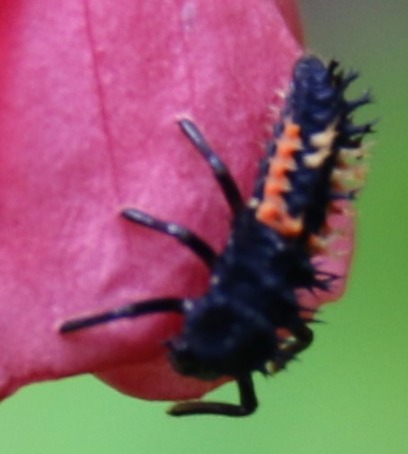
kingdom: Animalia
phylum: Arthropoda
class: Insecta
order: Coleoptera
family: Coccinellidae
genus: Harmonia
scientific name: Harmonia axyridis
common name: Harlekinmariehøne
